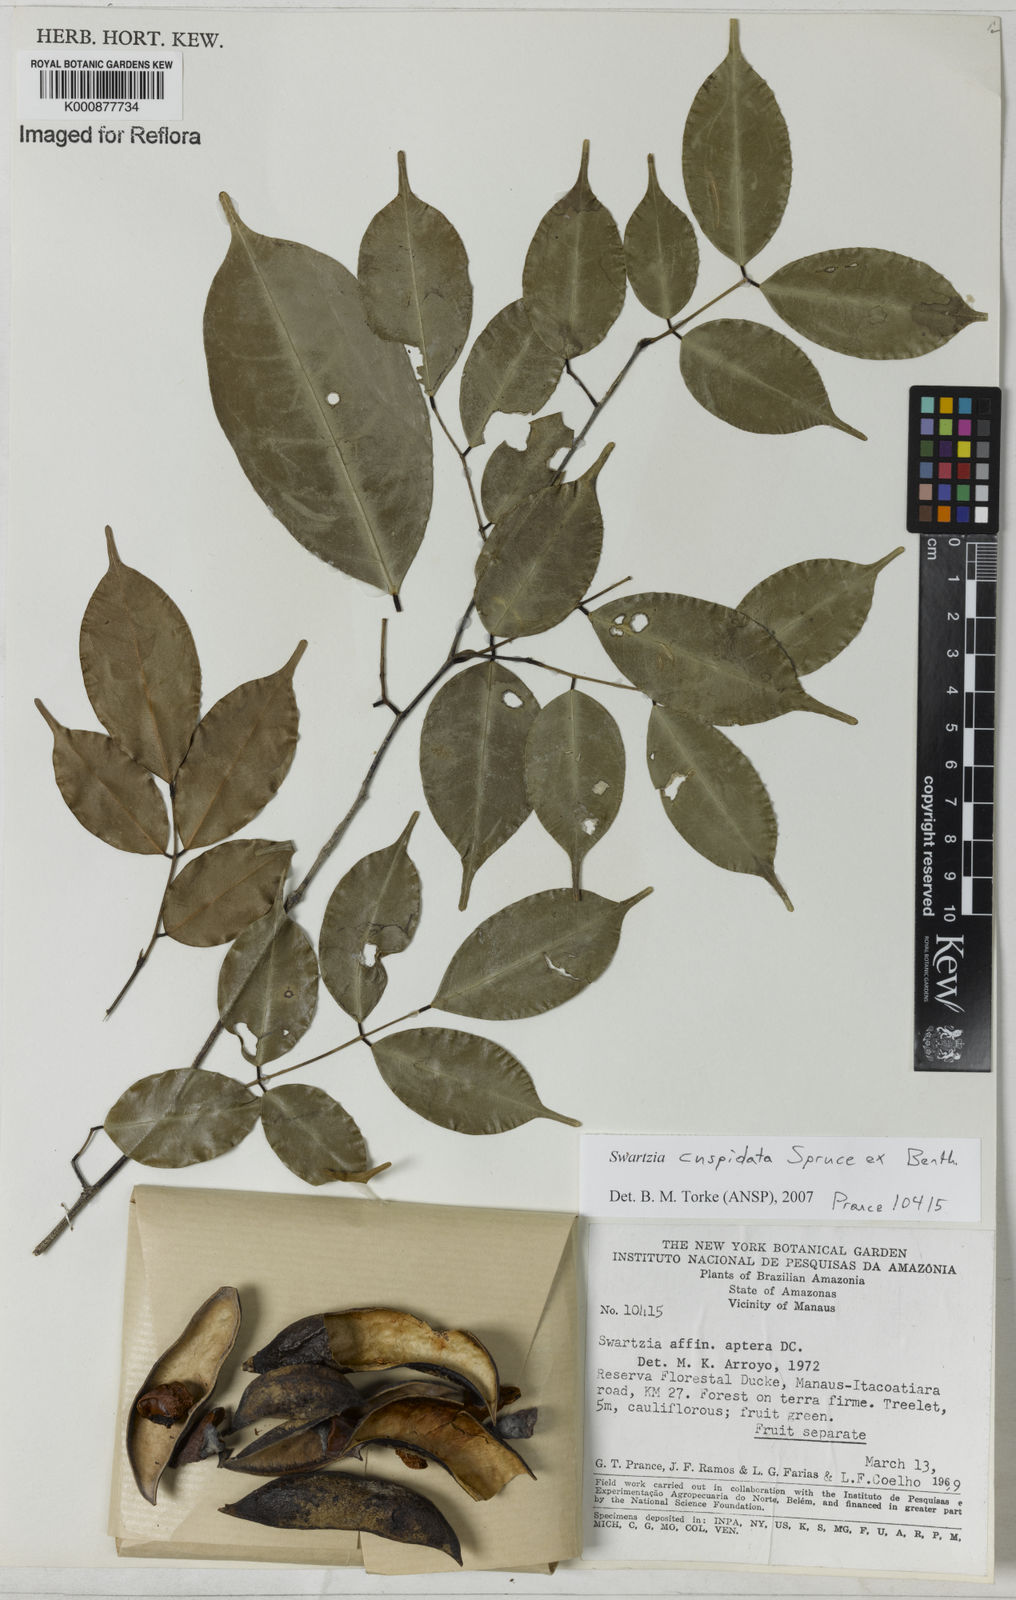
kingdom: Plantae
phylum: Tracheophyta
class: Magnoliopsida
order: Fabales
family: Fabaceae
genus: Swartzia
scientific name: Swartzia
